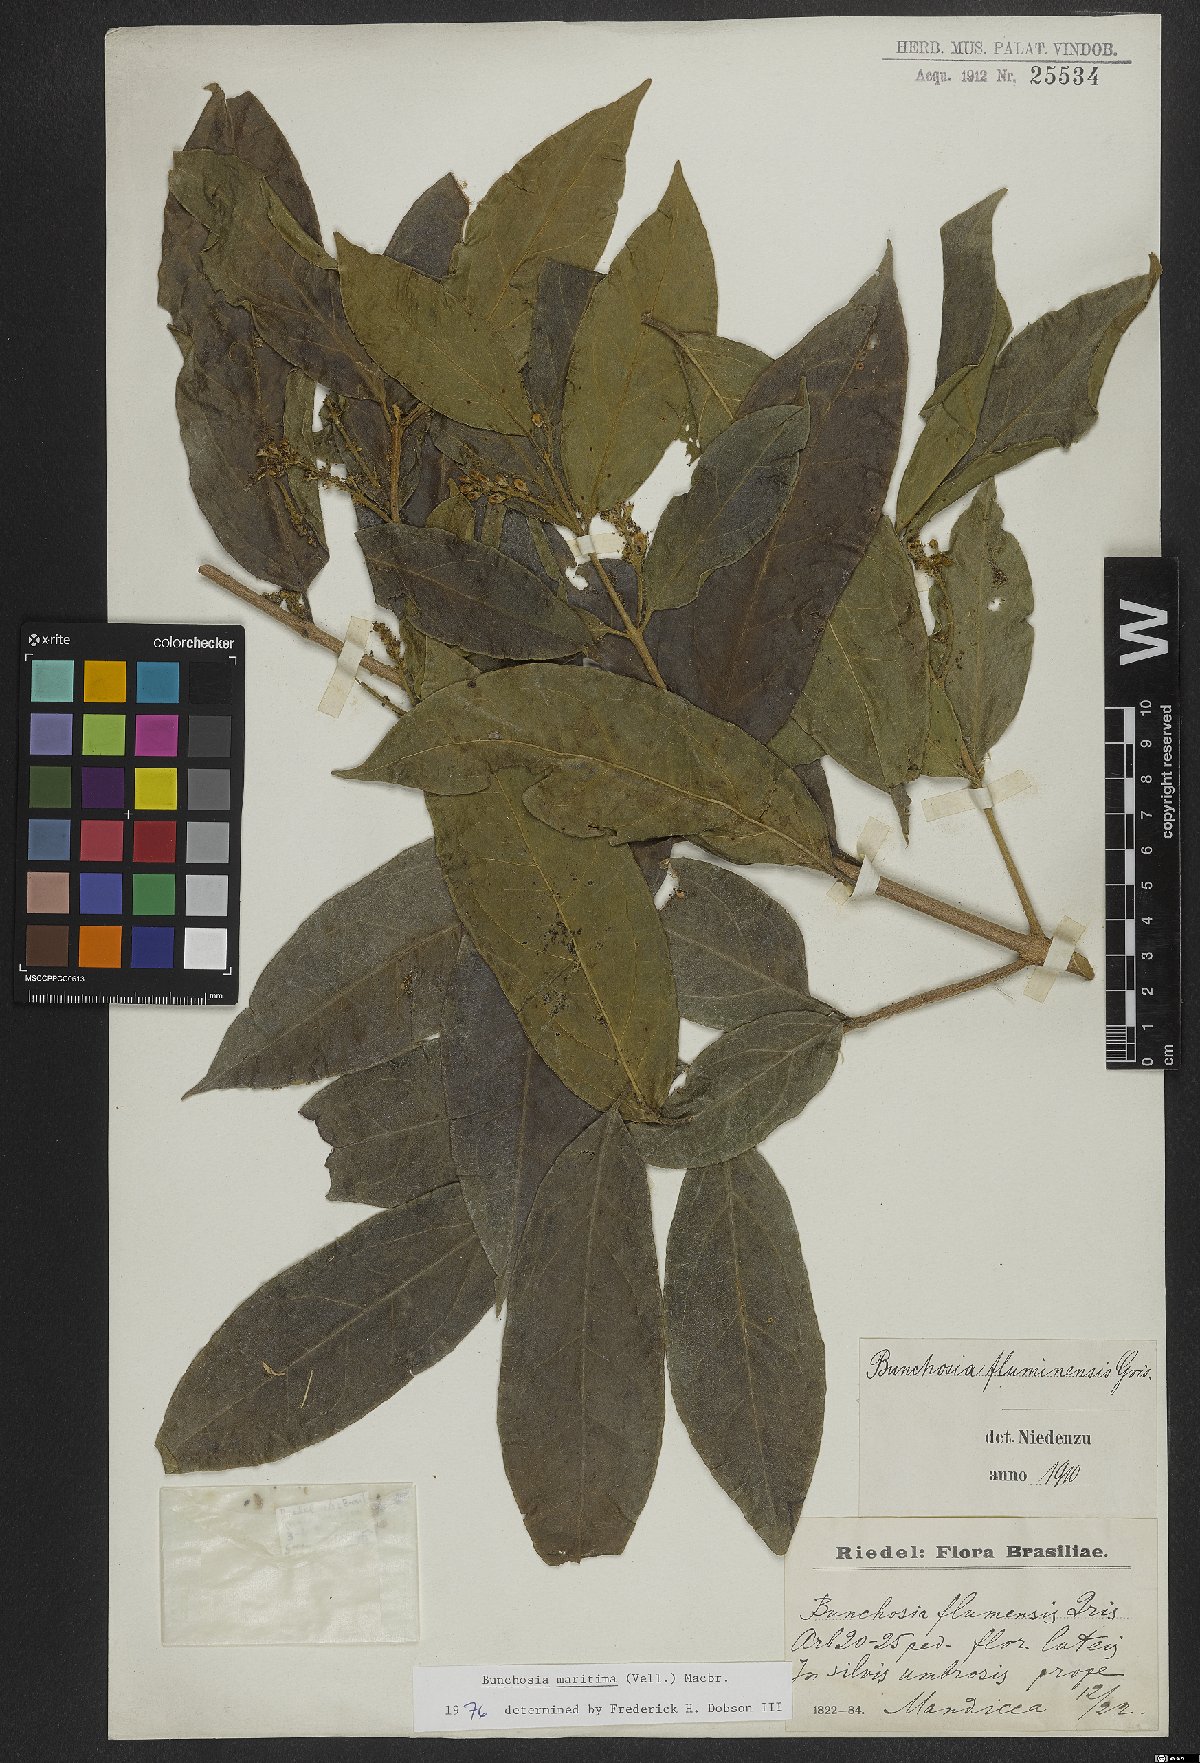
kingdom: Plantae
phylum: Tracheophyta
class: Magnoliopsida
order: Malpighiales
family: Malpighiaceae
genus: Bunchosia
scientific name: Bunchosia maritima
